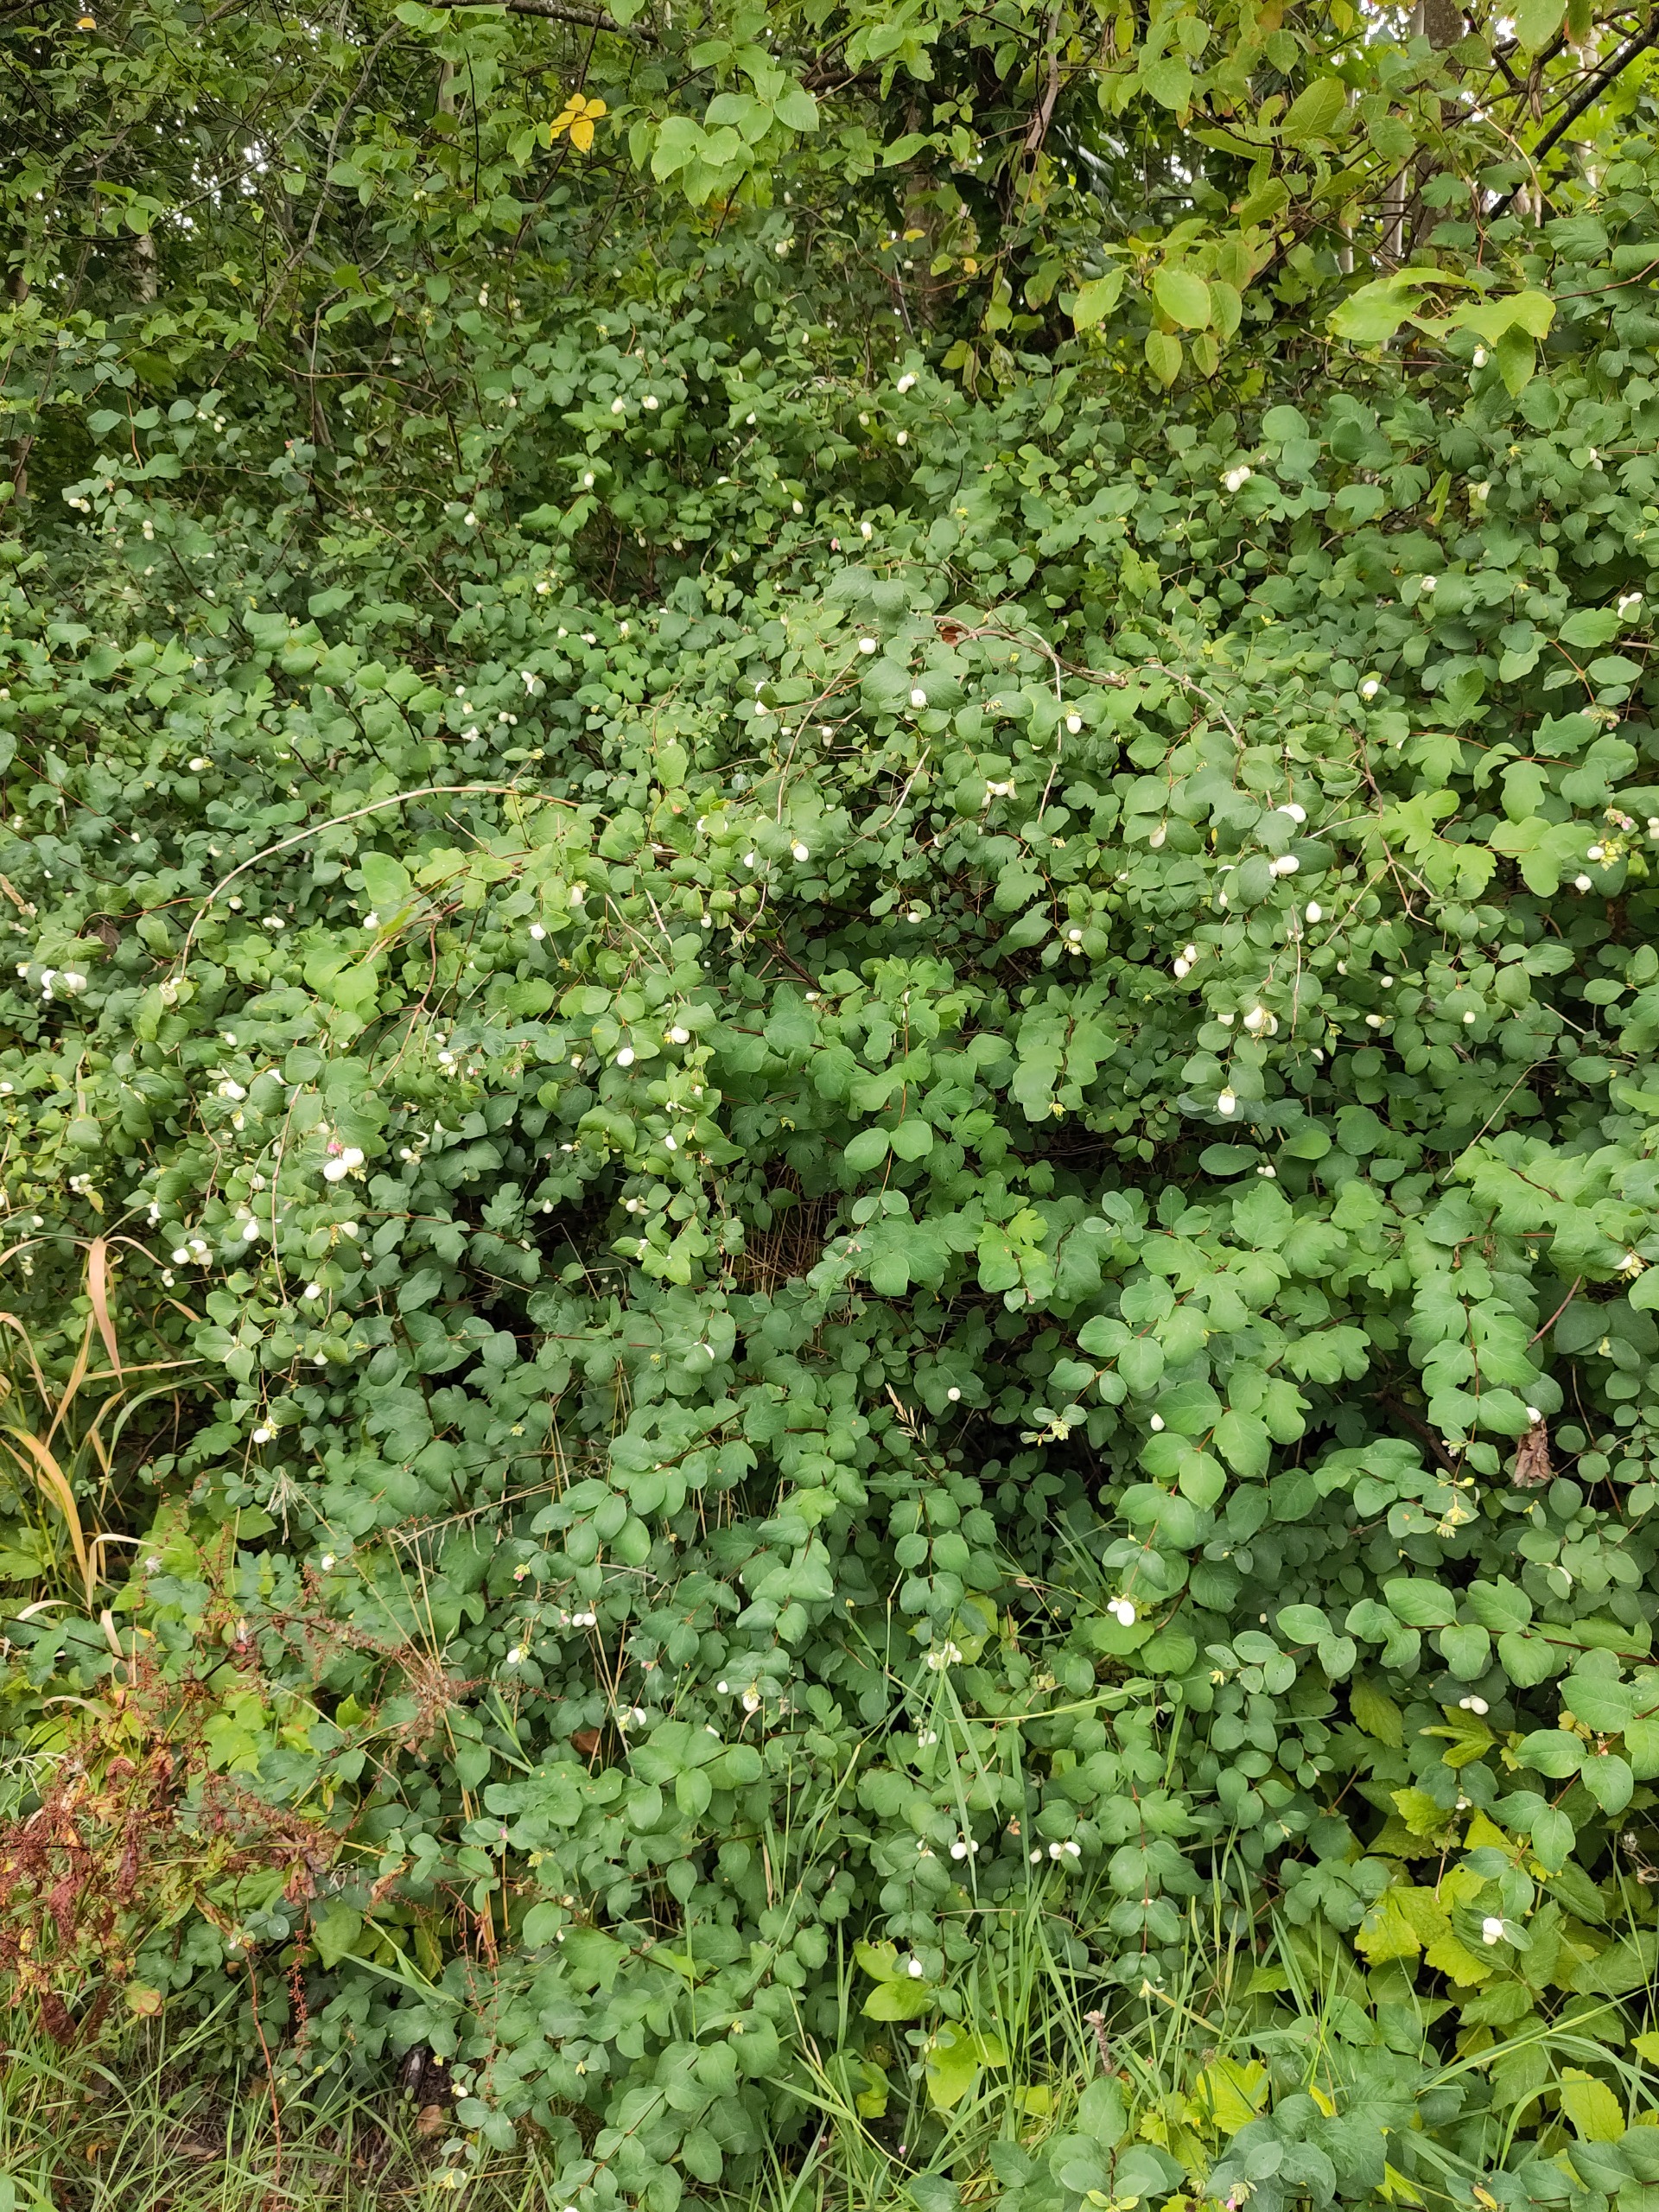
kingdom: Plantae
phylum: Tracheophyta
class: Magnoliopsida
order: Dipsacales
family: Caprifoliaceae
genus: Symphoricarpos
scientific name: Symphoricarpos albus
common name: Almindelig snebær
